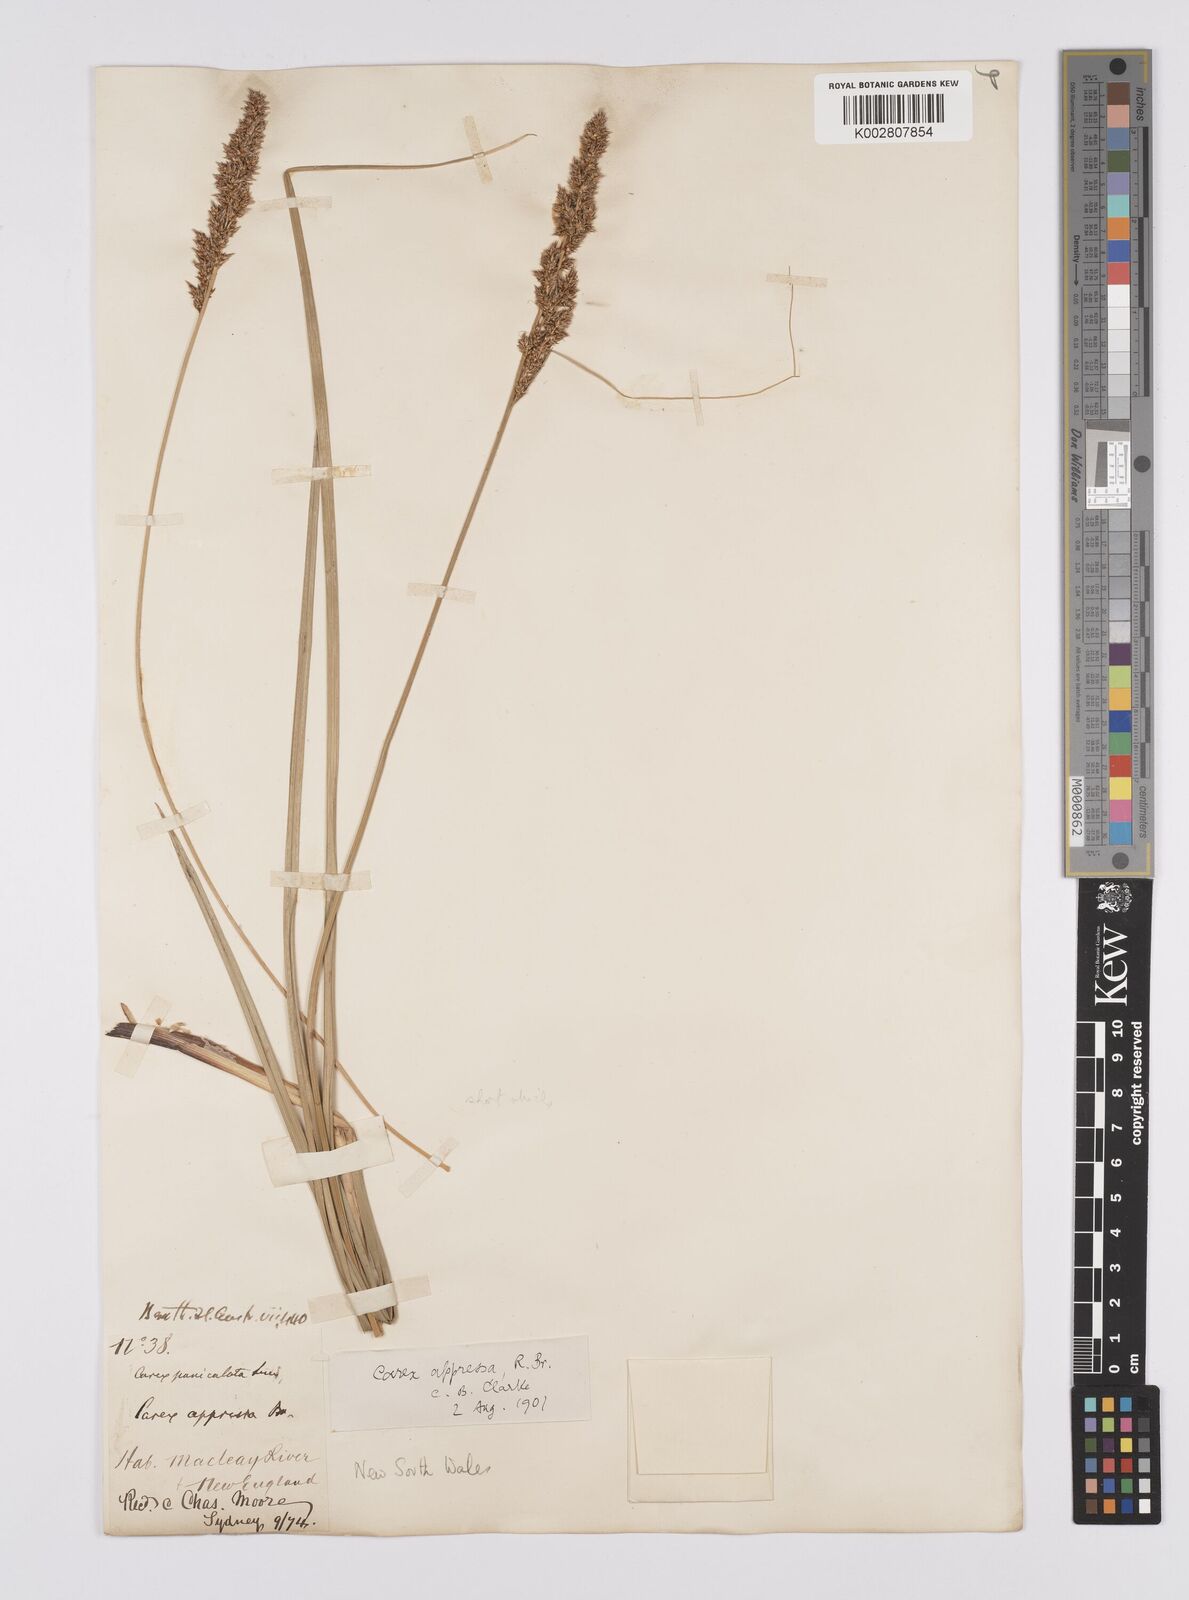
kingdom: Plantae
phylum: Tracheophyta
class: Liliopsida
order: Poales
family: Cyperaceae
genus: Carex
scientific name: Carex appressa
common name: Tussock sedge
